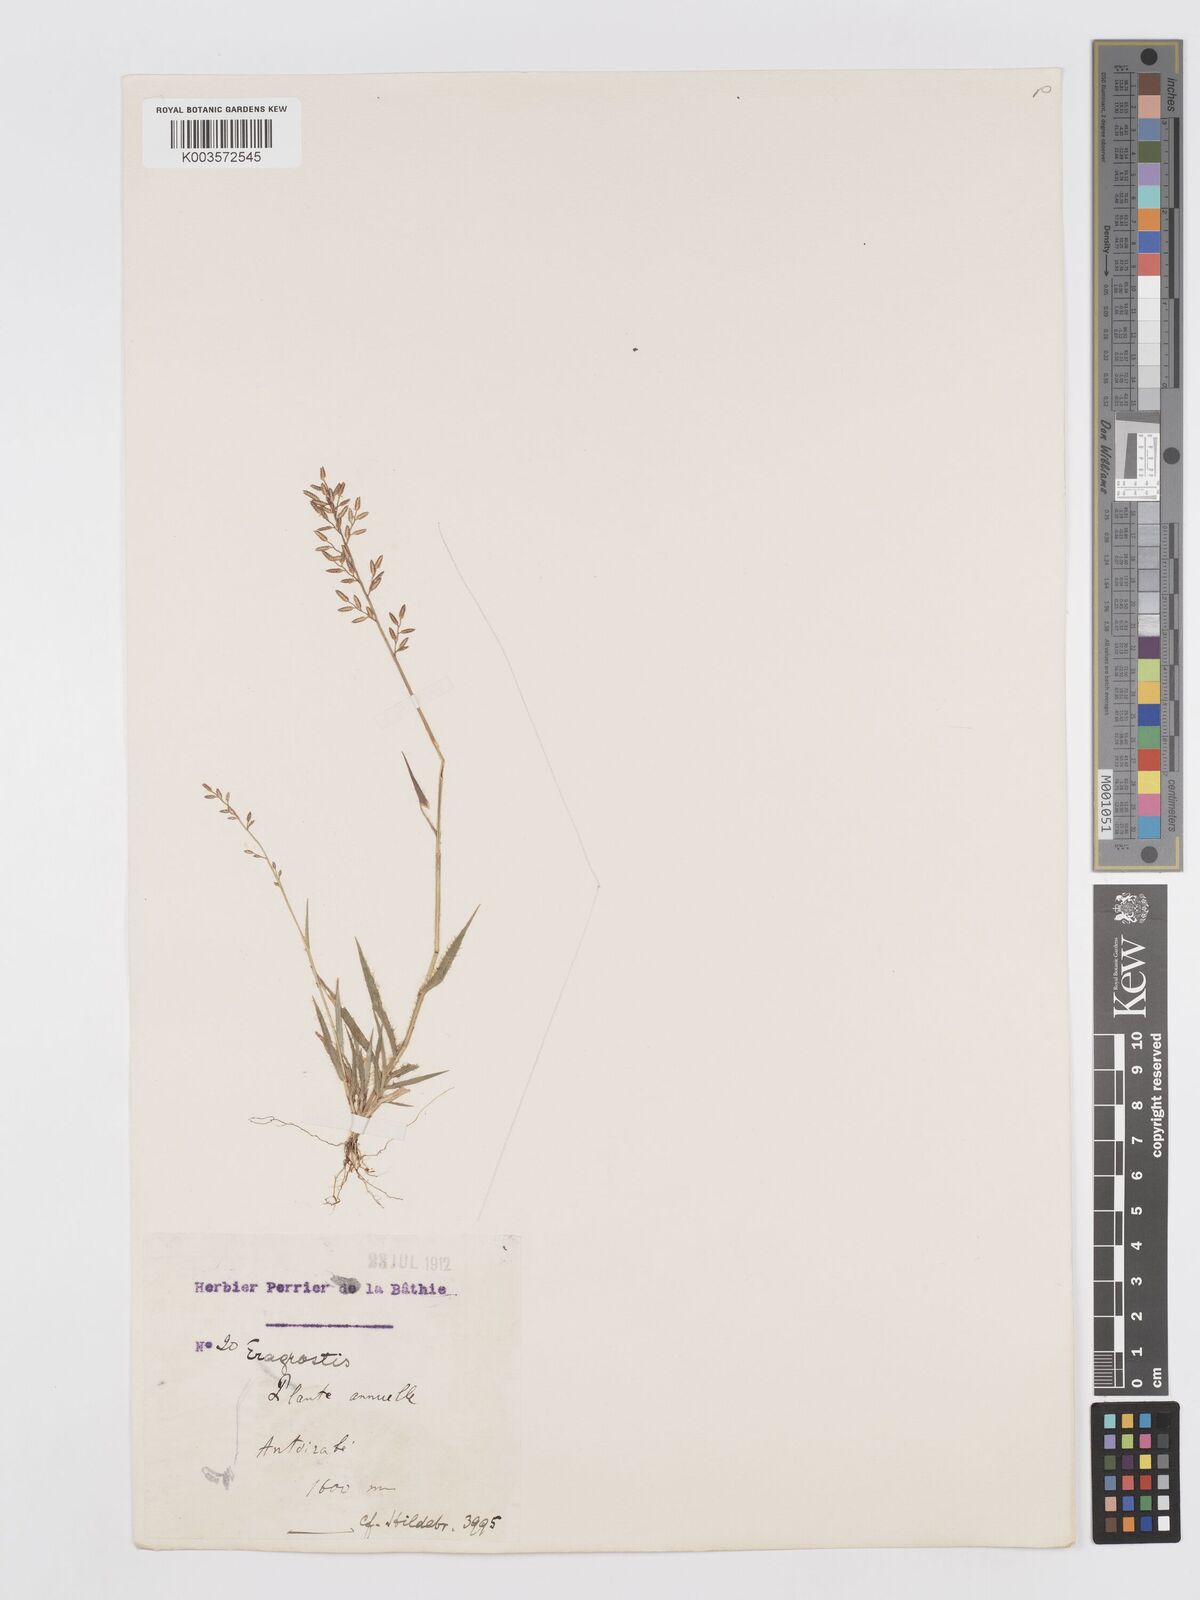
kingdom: Plantae
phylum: Tracheophyta
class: Liliopsida
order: Poales
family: Poaceae
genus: Eragrostis
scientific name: Eragrostis lateritica
